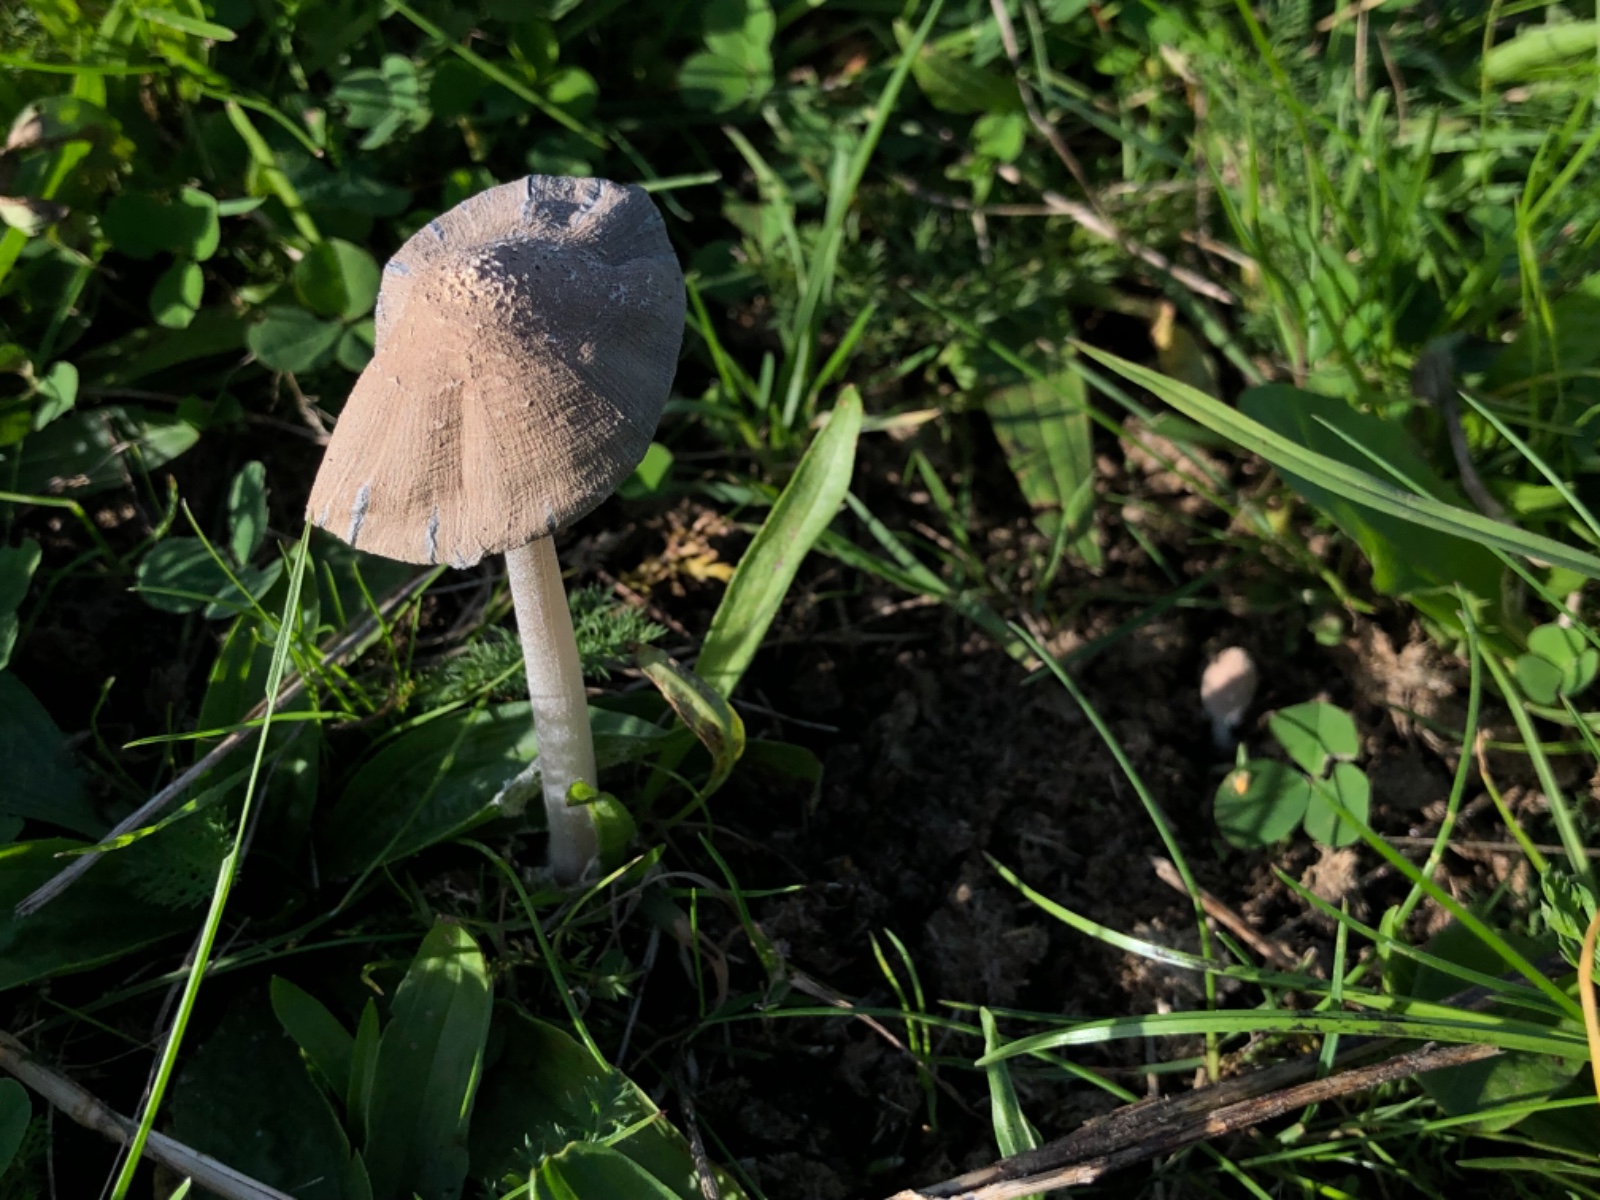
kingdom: Fungi
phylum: Basidiomycota
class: Agaricomycetes
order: Agaricales
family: Psathyrellaceae
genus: Coprinopsis
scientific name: Coprinopsis pseudonivea
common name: pudret blækhat
